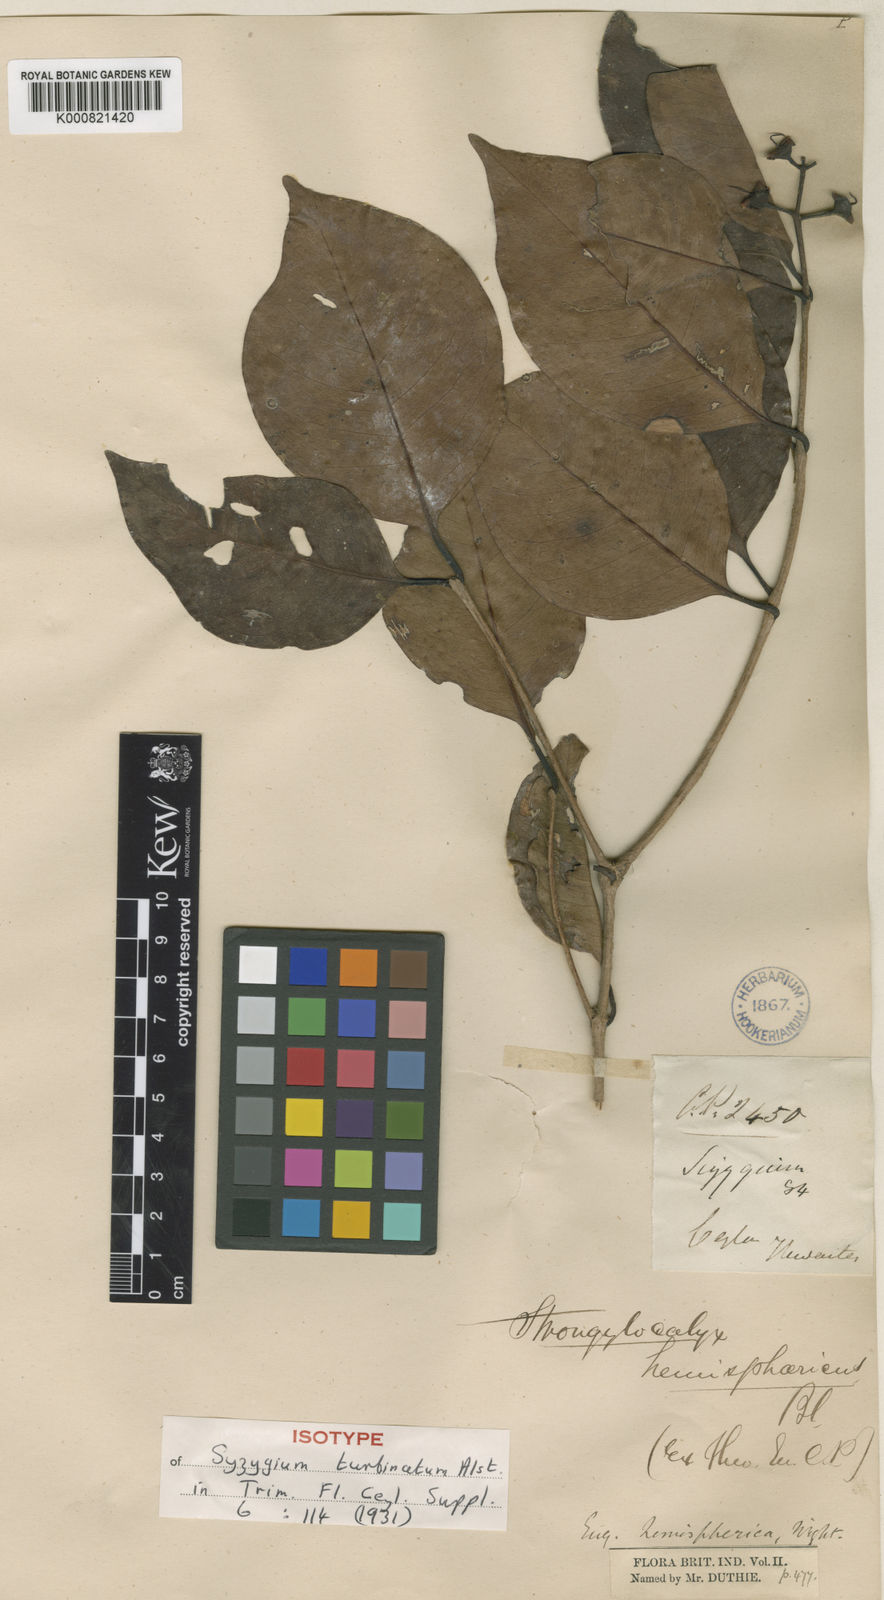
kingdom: Plantae
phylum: Tracheophyta
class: Magnoliopsida
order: Myrtales
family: Myrtaceae
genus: Syzygium
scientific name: Syzygium turbinatum
